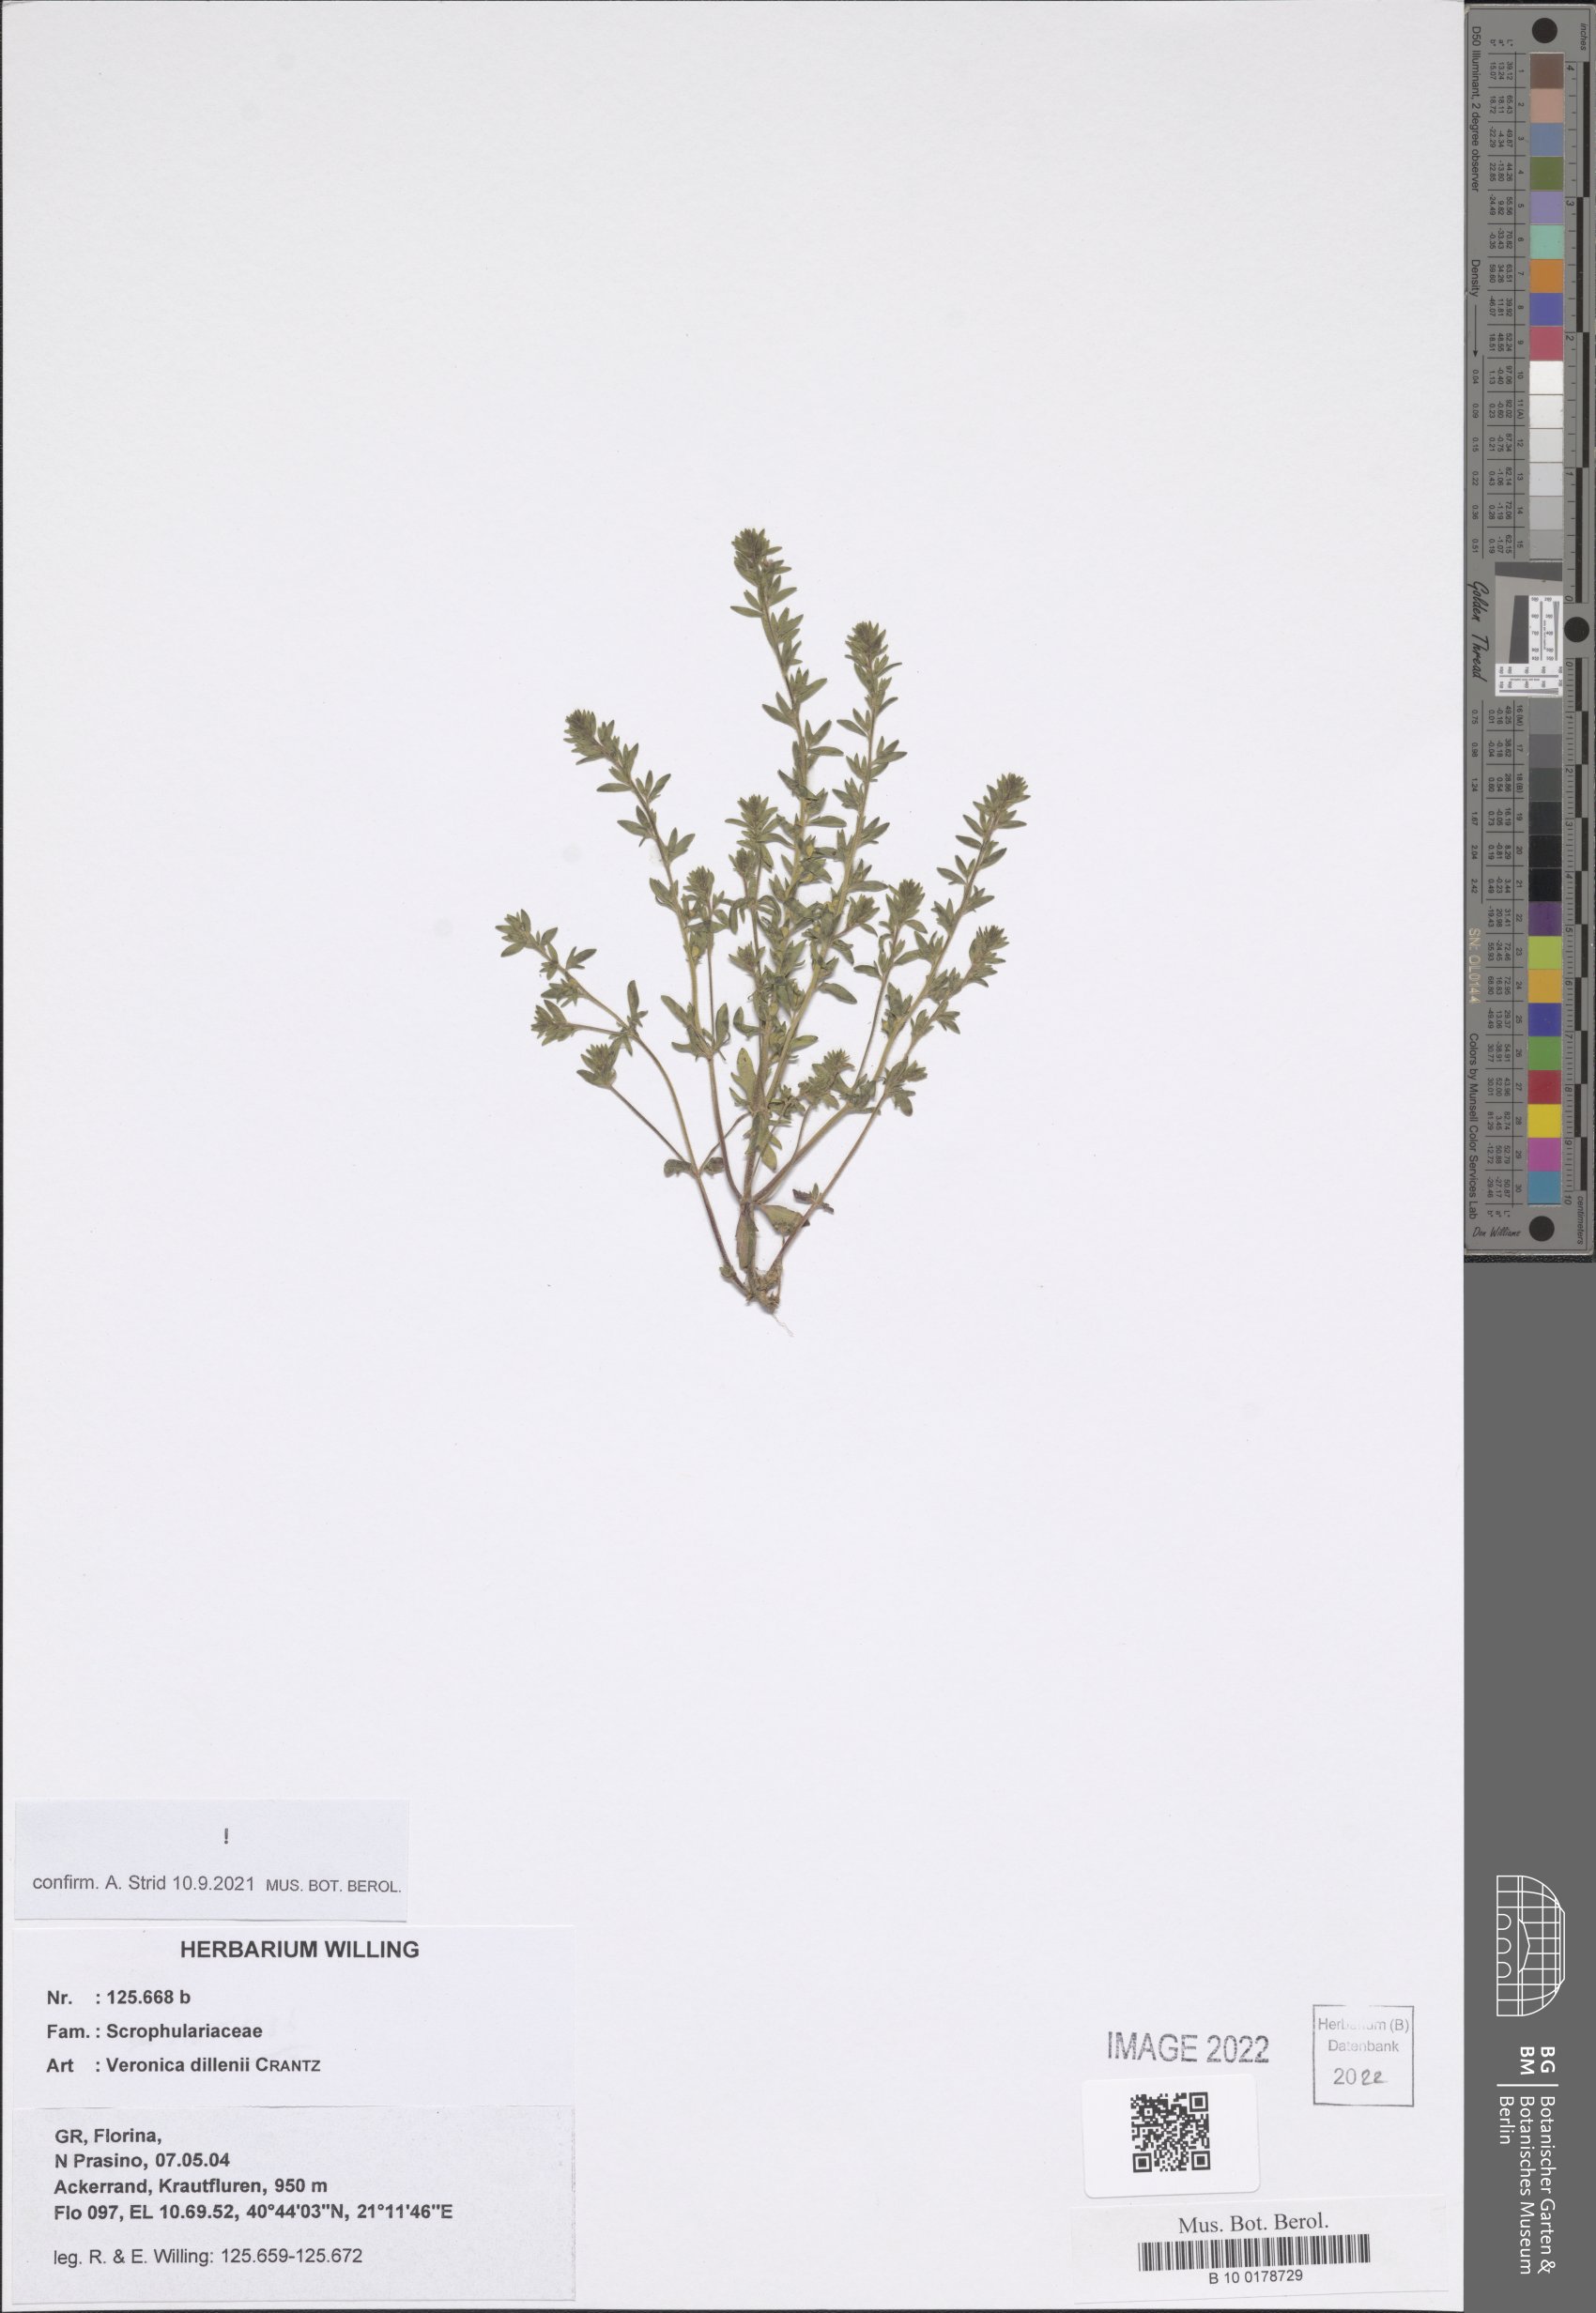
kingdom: Plantae
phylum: Tracheophyta
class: Magnoliopsida
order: Lamiales
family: Plantaginaceae
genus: Veronica
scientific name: Veronica dillenii
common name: Dillenius' speedwell
